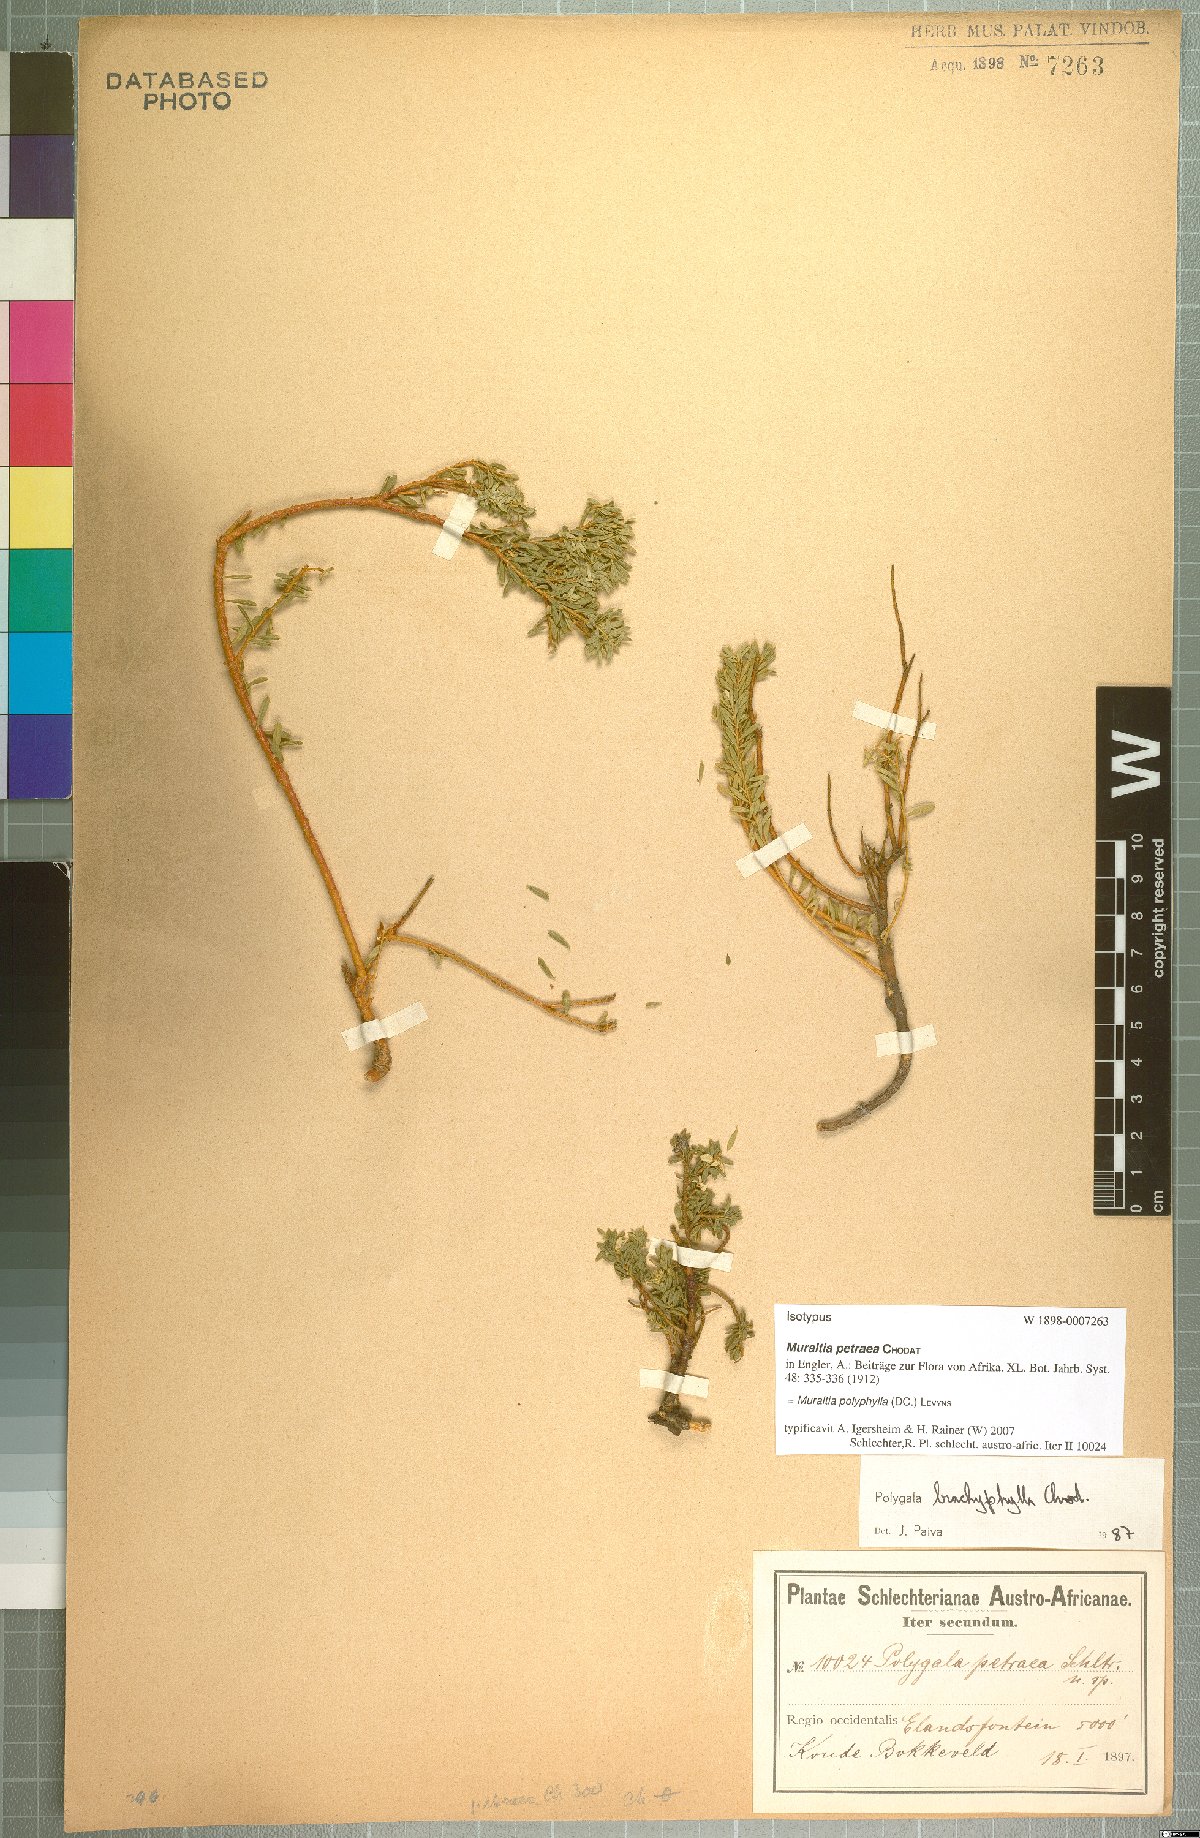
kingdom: Plantae
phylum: Tracheophyta
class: Magnoliopsida
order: Fabales
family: Polygalaceae
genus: Muraltia
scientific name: Muraltia polyphylla
